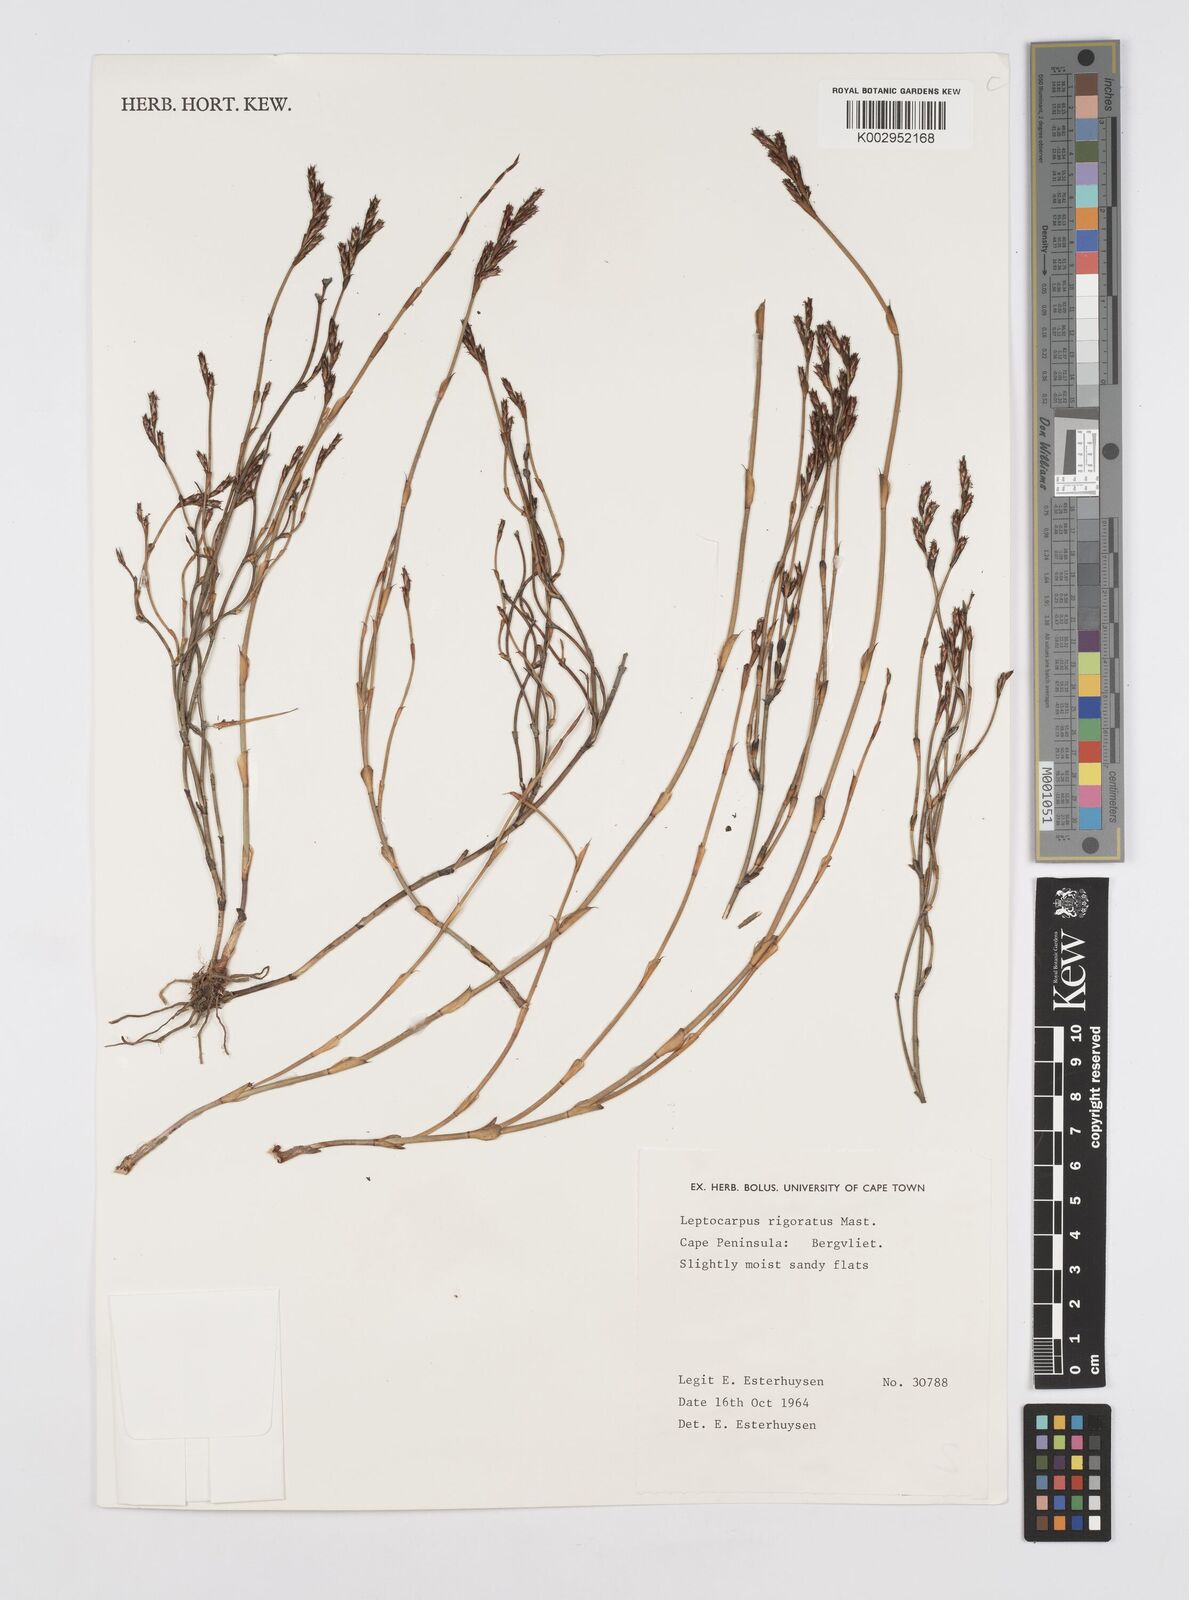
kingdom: Plantae
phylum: Tracheophyta
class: Liliopsida
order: Poales
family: Restionaceae
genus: Restio
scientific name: Restio rigoratus
